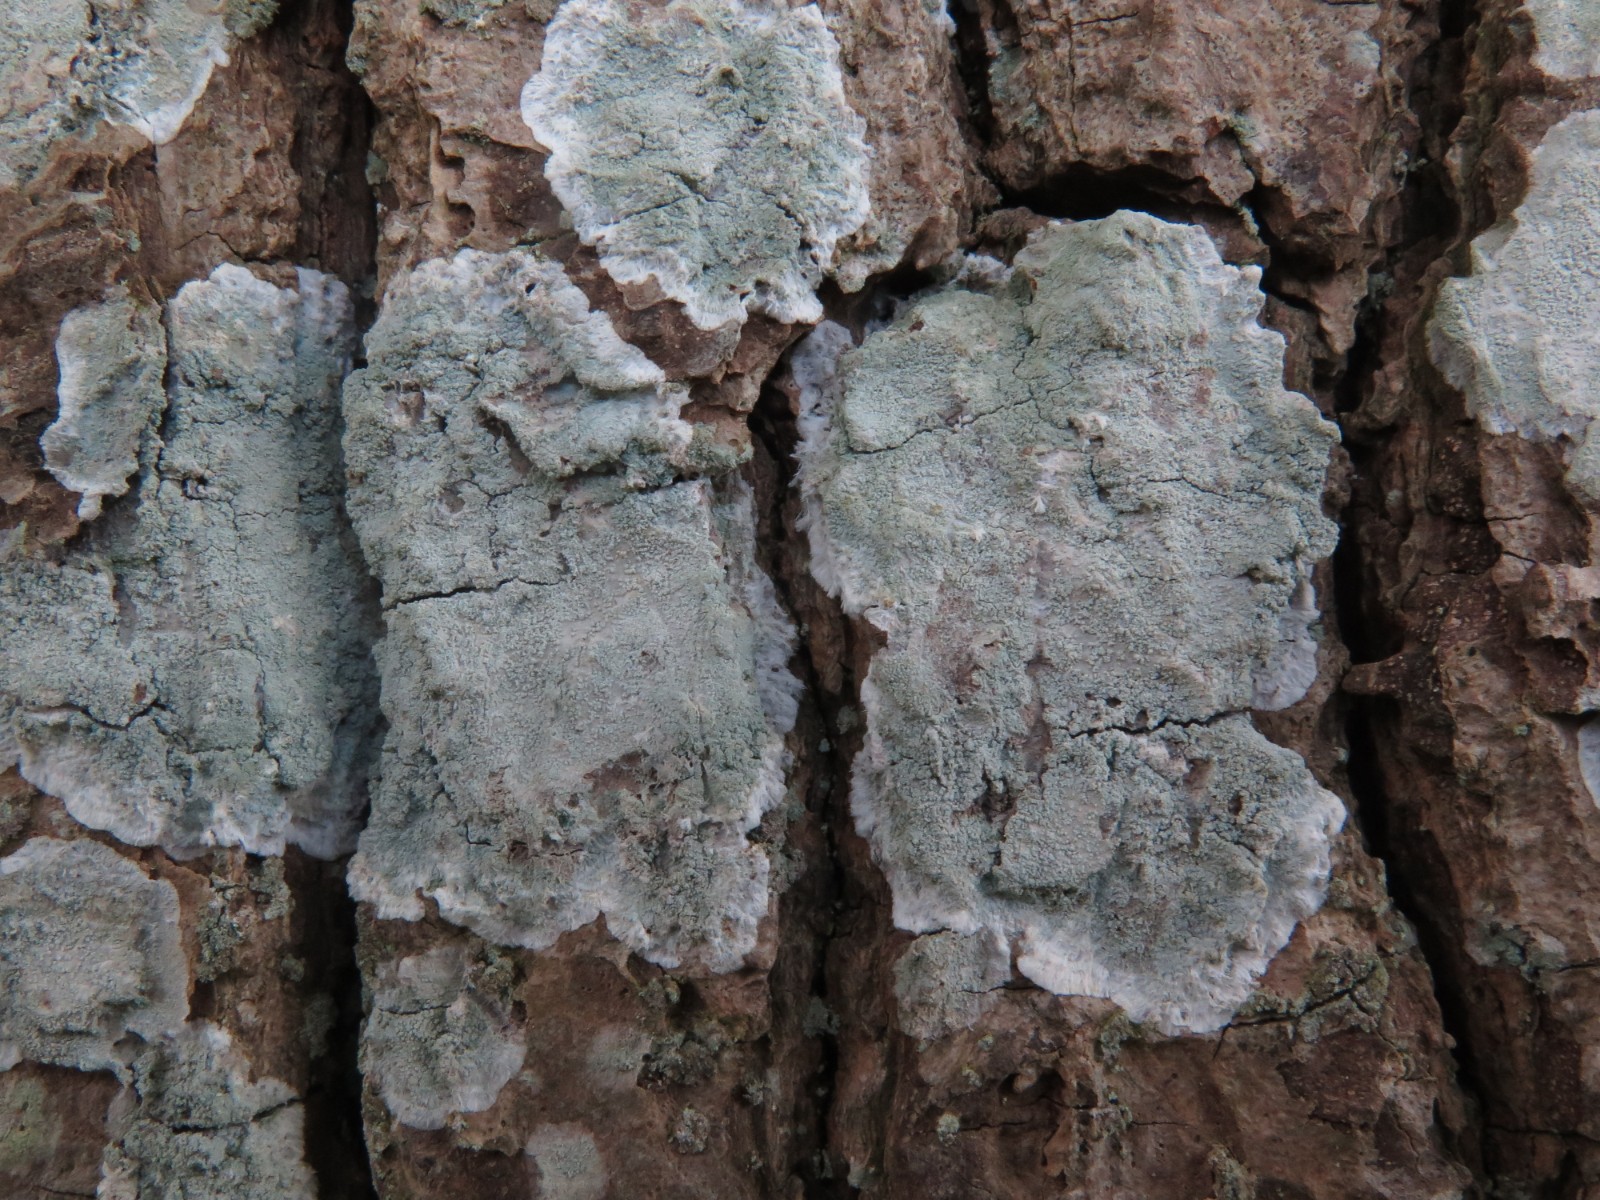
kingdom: Fungi
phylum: Ascomycota
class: Lecanoromycetes
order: Lecanorales
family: Haematommataceae
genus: Haematomma
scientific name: Haematomma ochroleucum
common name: gul trådkantlav
